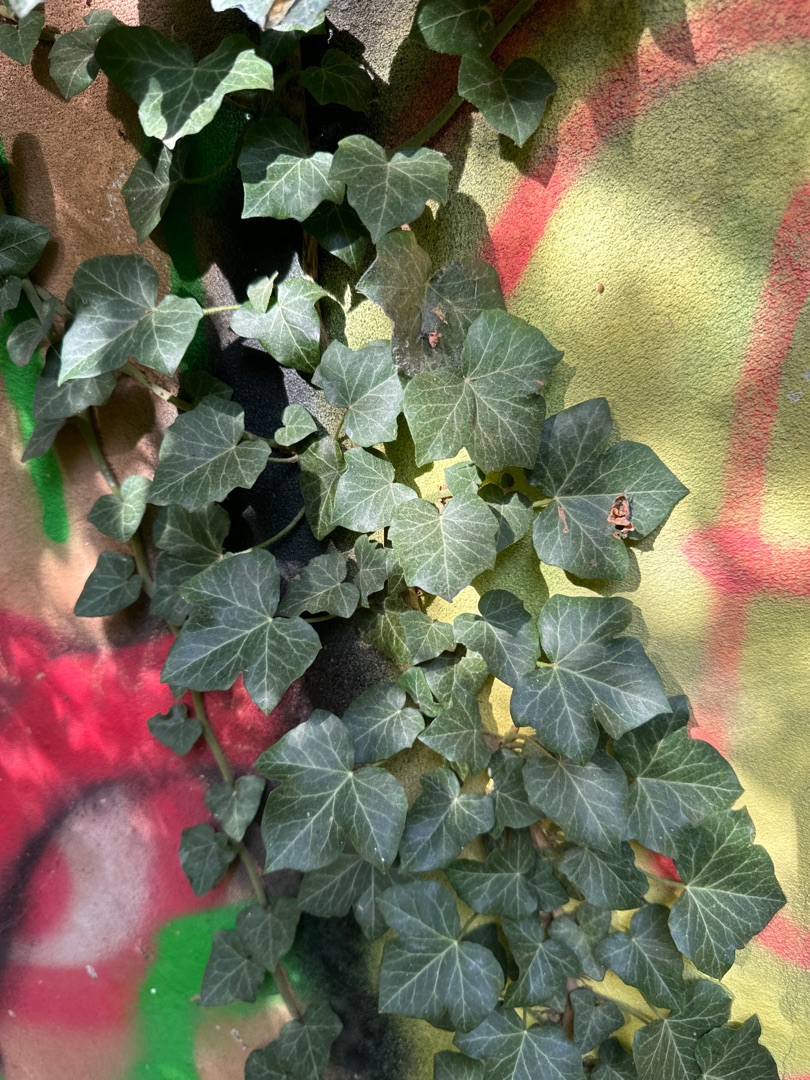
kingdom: Plantae
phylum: Tracheophyta
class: Magnoliopsida
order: Apiales
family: Araliaceae
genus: Hedera
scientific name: Hedera helix
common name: Vedbend
